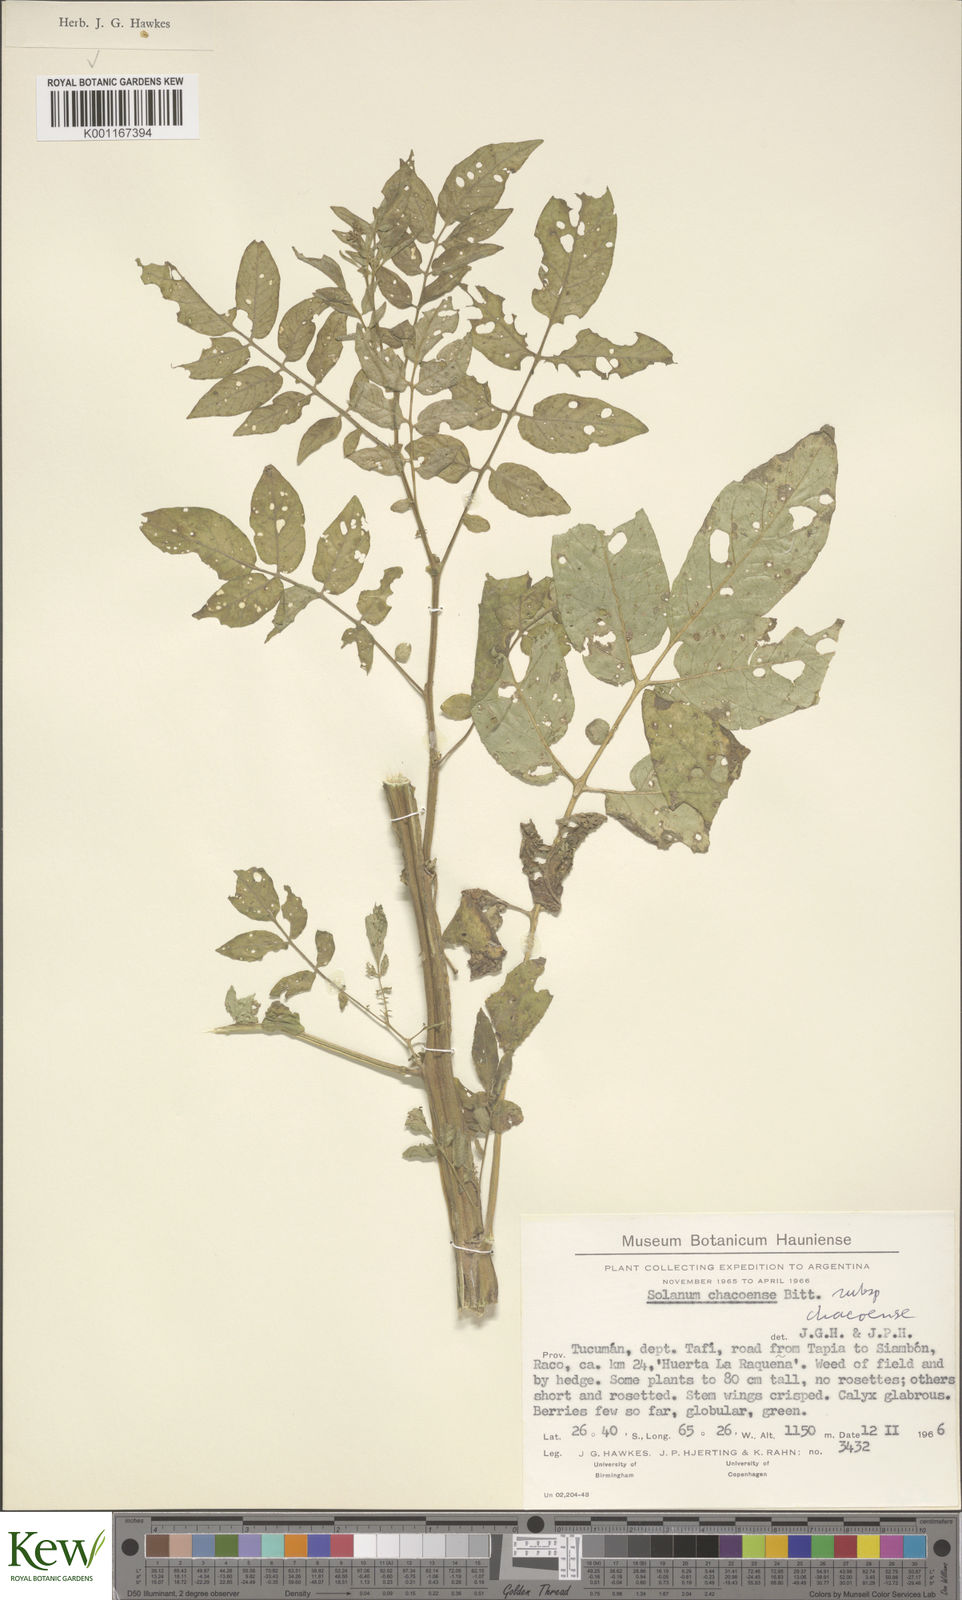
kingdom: Plantae
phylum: Tracheophyta
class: Magnoliopsida
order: Solanales
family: Solanaceae
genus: Solanum
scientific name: Solanum chacoense
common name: Chaco potato
